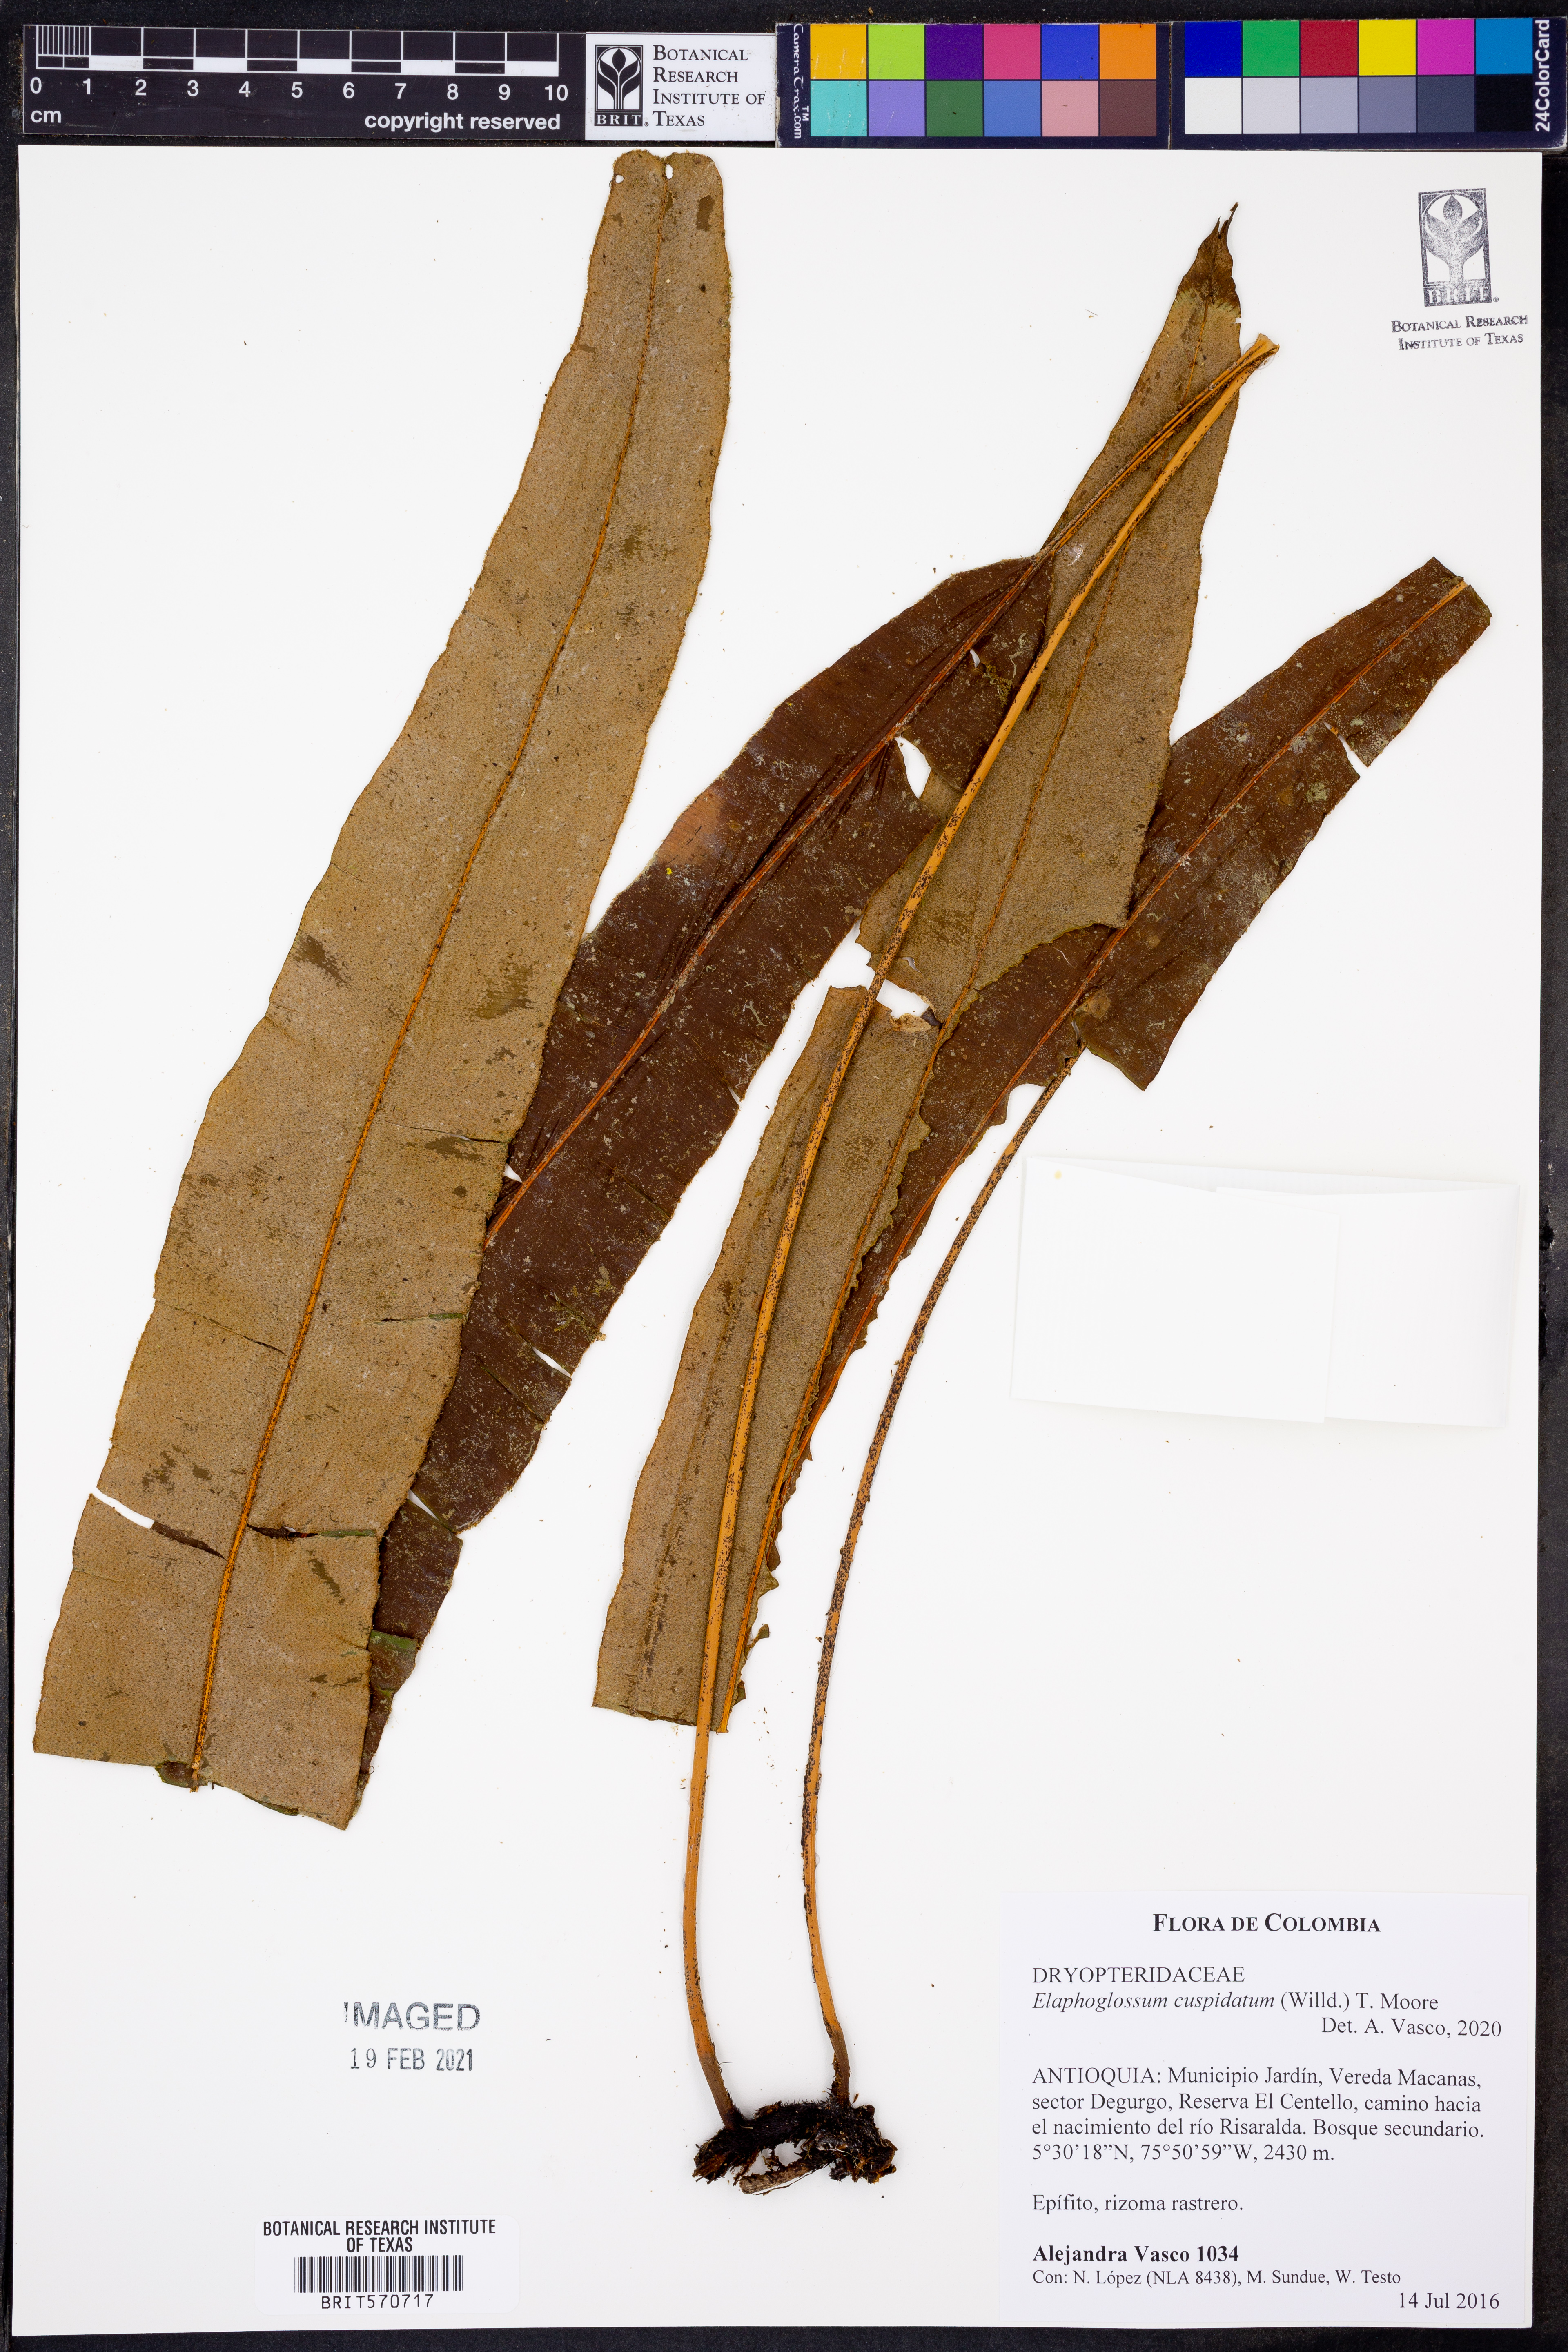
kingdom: Plantae
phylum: Tracheophyta
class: Polypodiopsida
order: Polypodiales
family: Dryopteridaceae
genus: Elaphoglossum
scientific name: Elaphoglossum cuspidatum
